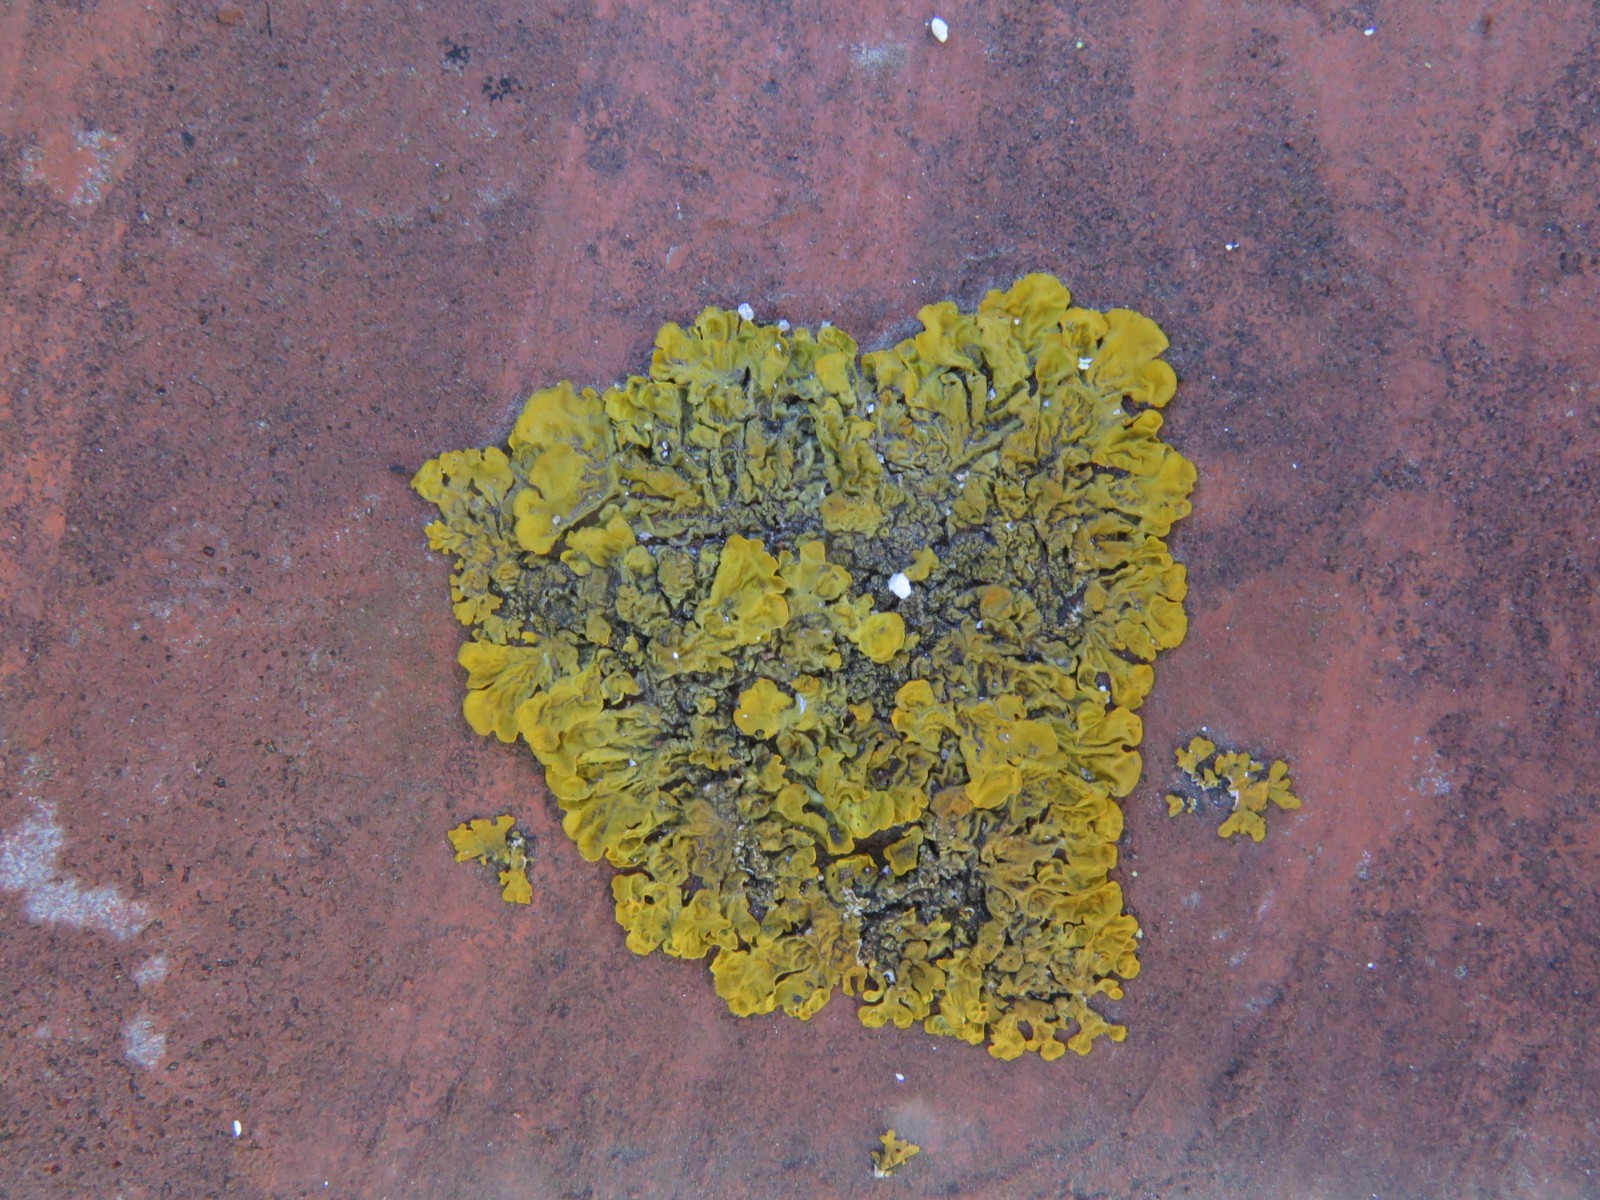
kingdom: Fungi
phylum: Ascomycota
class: Lecanoromycetes
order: Teloschistales
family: Teloschistaceae
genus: Xanthoria
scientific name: Xanthoria calcicola
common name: vortet væggelav
